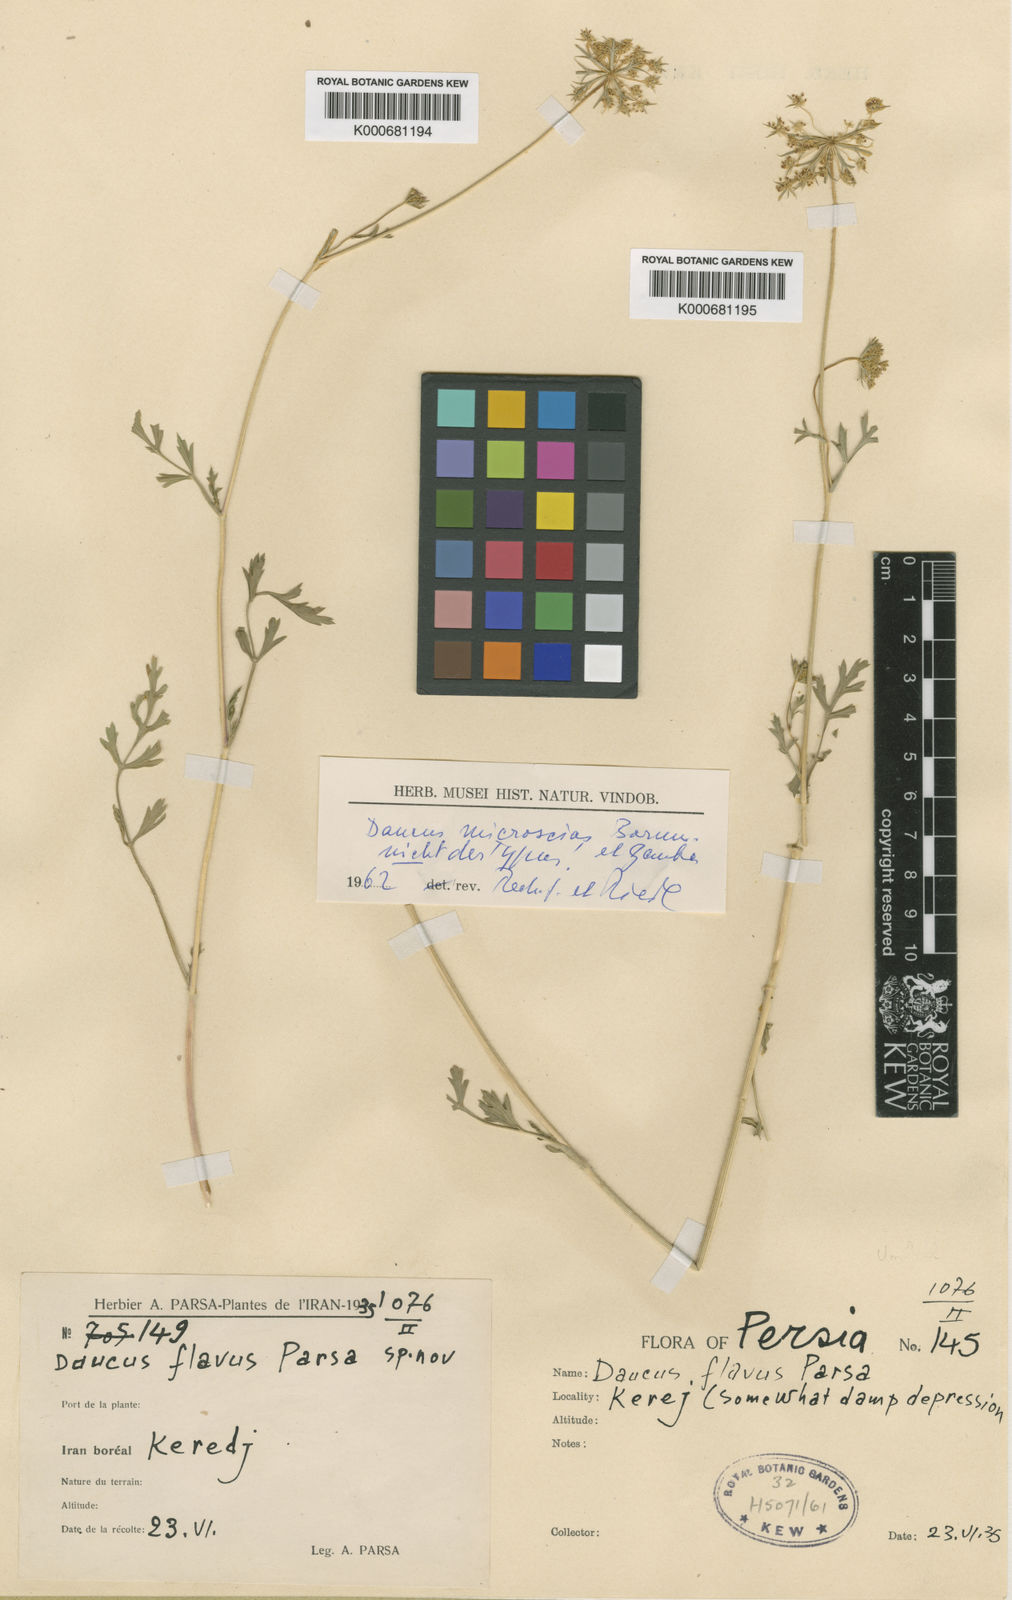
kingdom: Plantae
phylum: Tracheophyta
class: Magnoliopsida
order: Apiales
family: Apiaceae
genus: Daucus
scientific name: Daucus microscias
